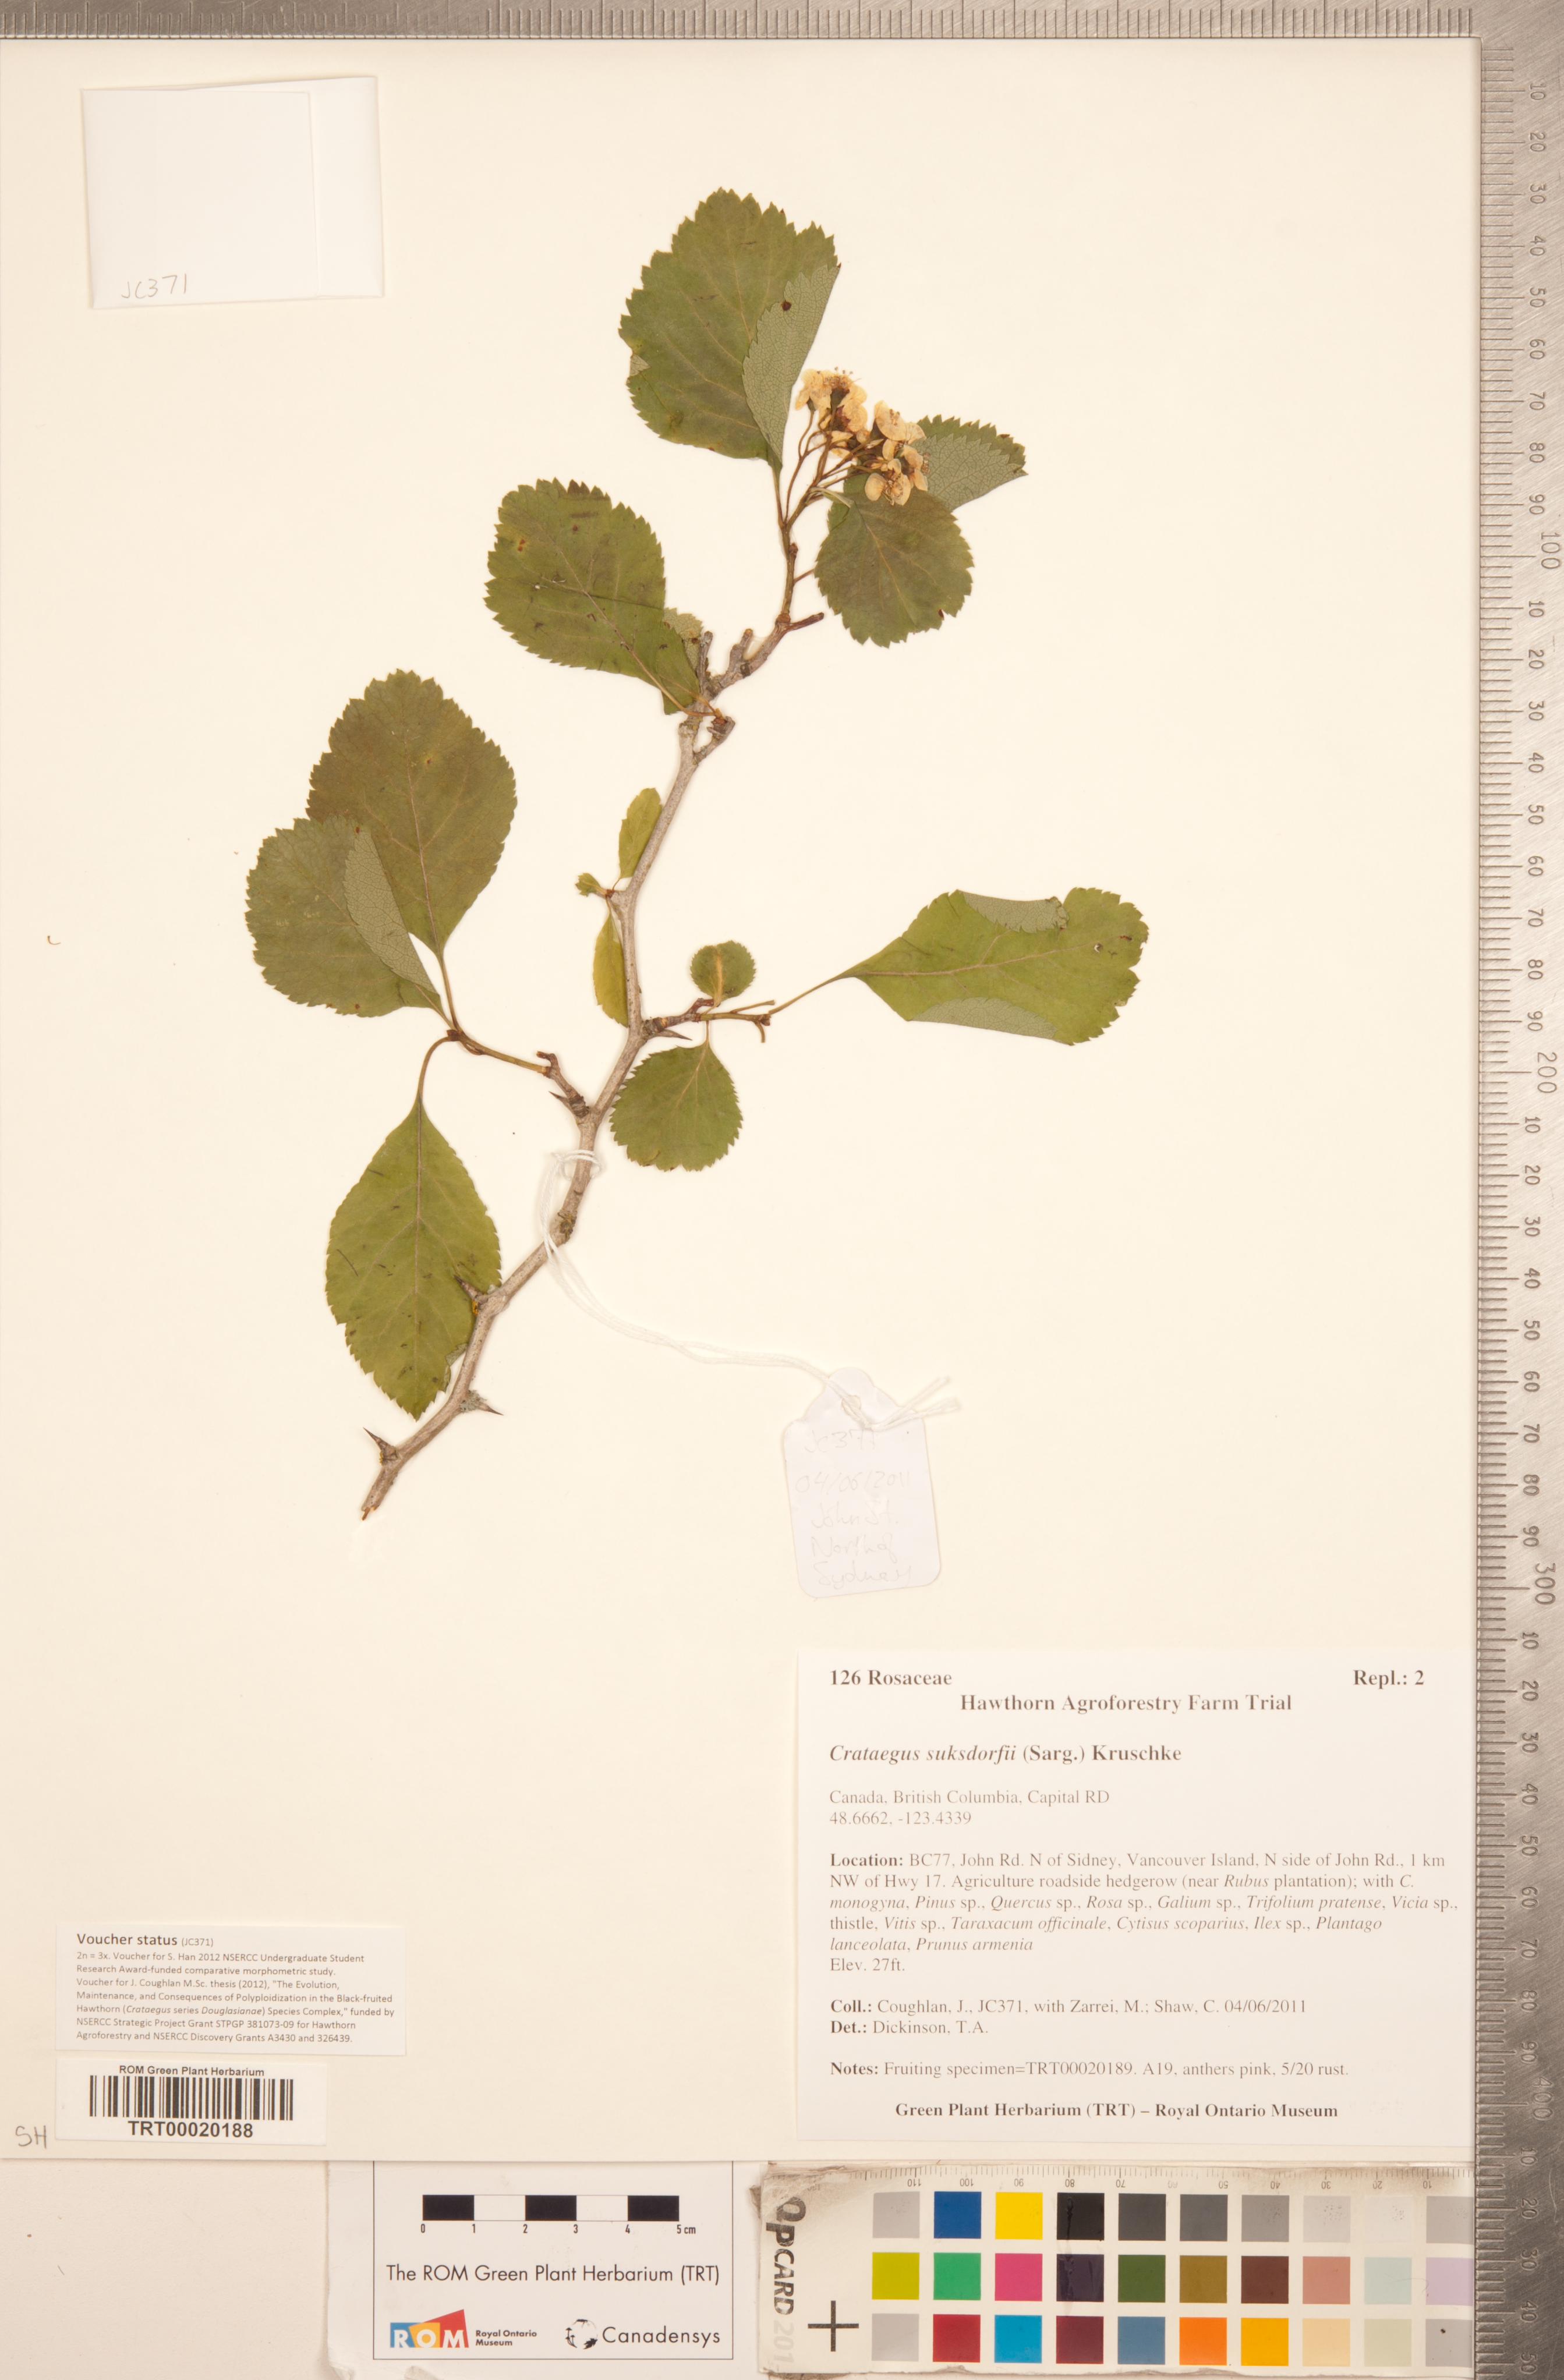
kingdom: Plantae
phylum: Tracheophyta
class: Magnoliopsida
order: Rosales
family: Rosaceae
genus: Crataegus
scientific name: Crataegus gaylussacia
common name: Huckleberry hawthorn
